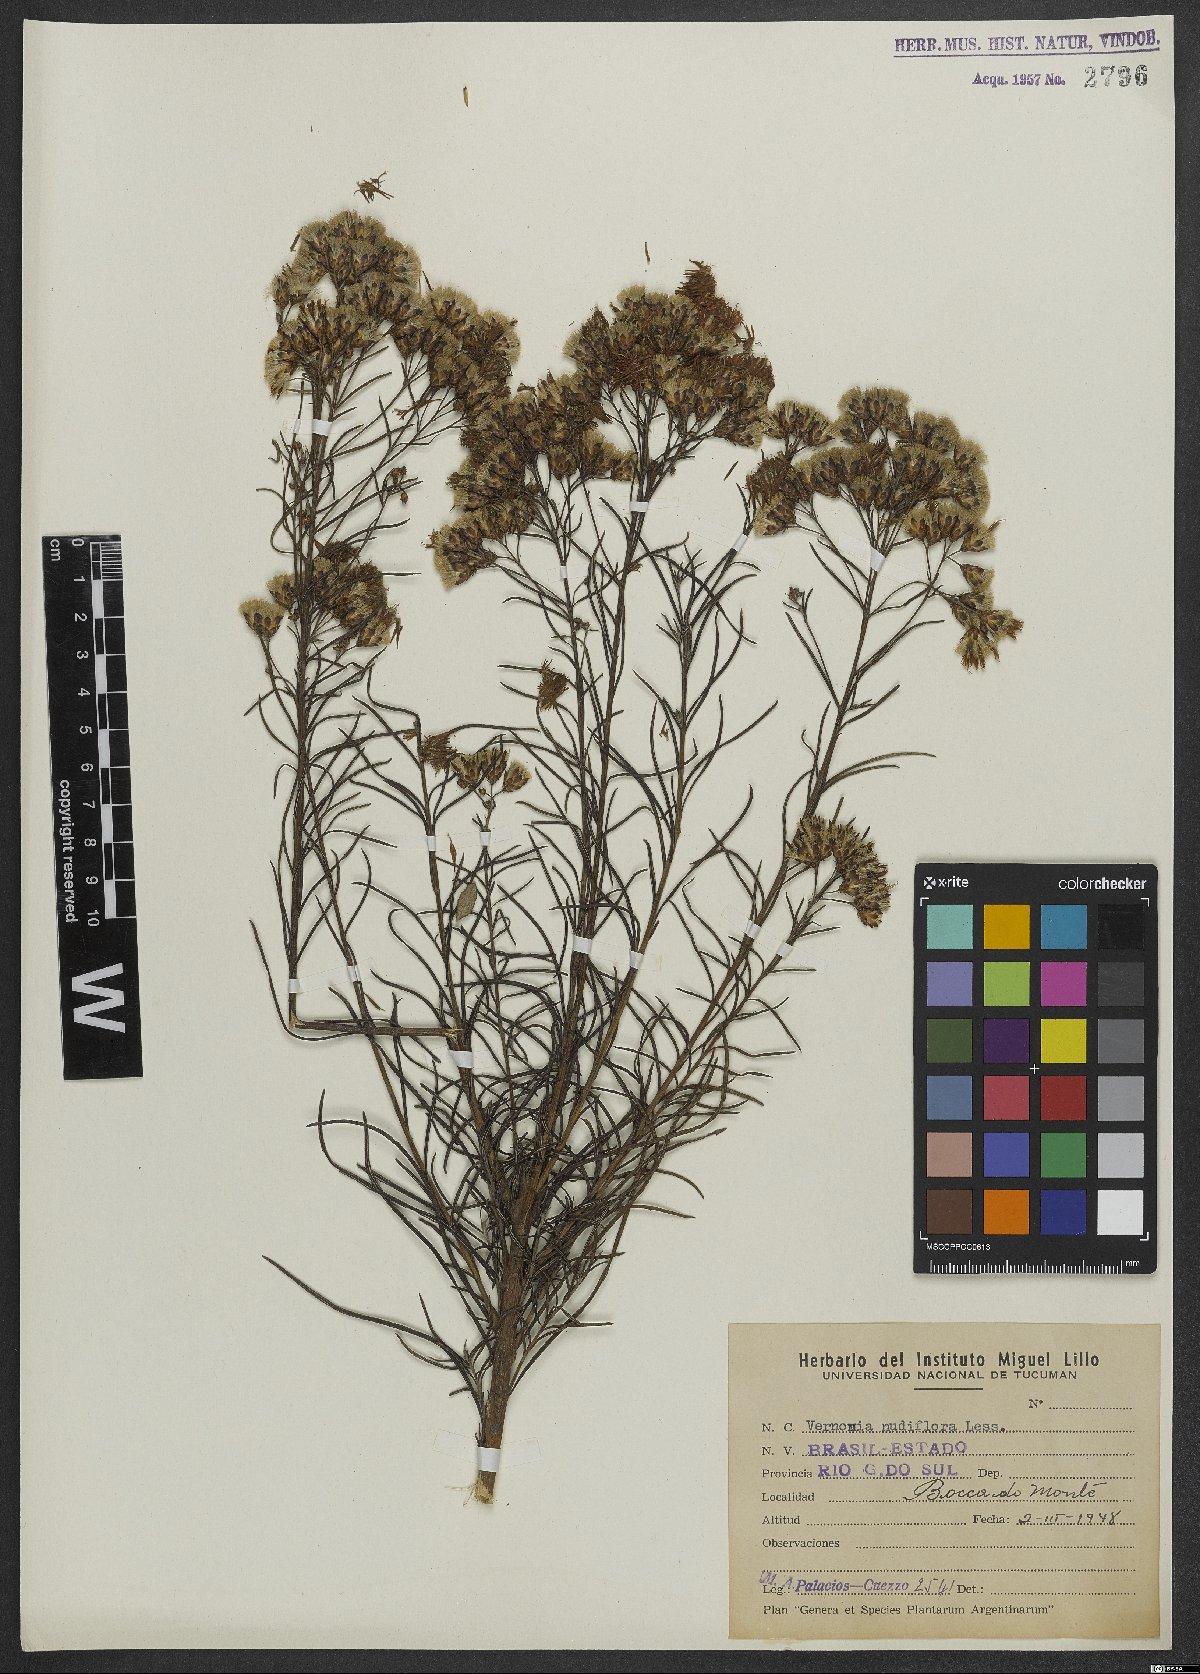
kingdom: Plantae
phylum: Tracheophyta
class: Magnoliopsida
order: Asterales
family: Asteraceae
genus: Vernonanthura
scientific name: Vernonanthura nudiflora
